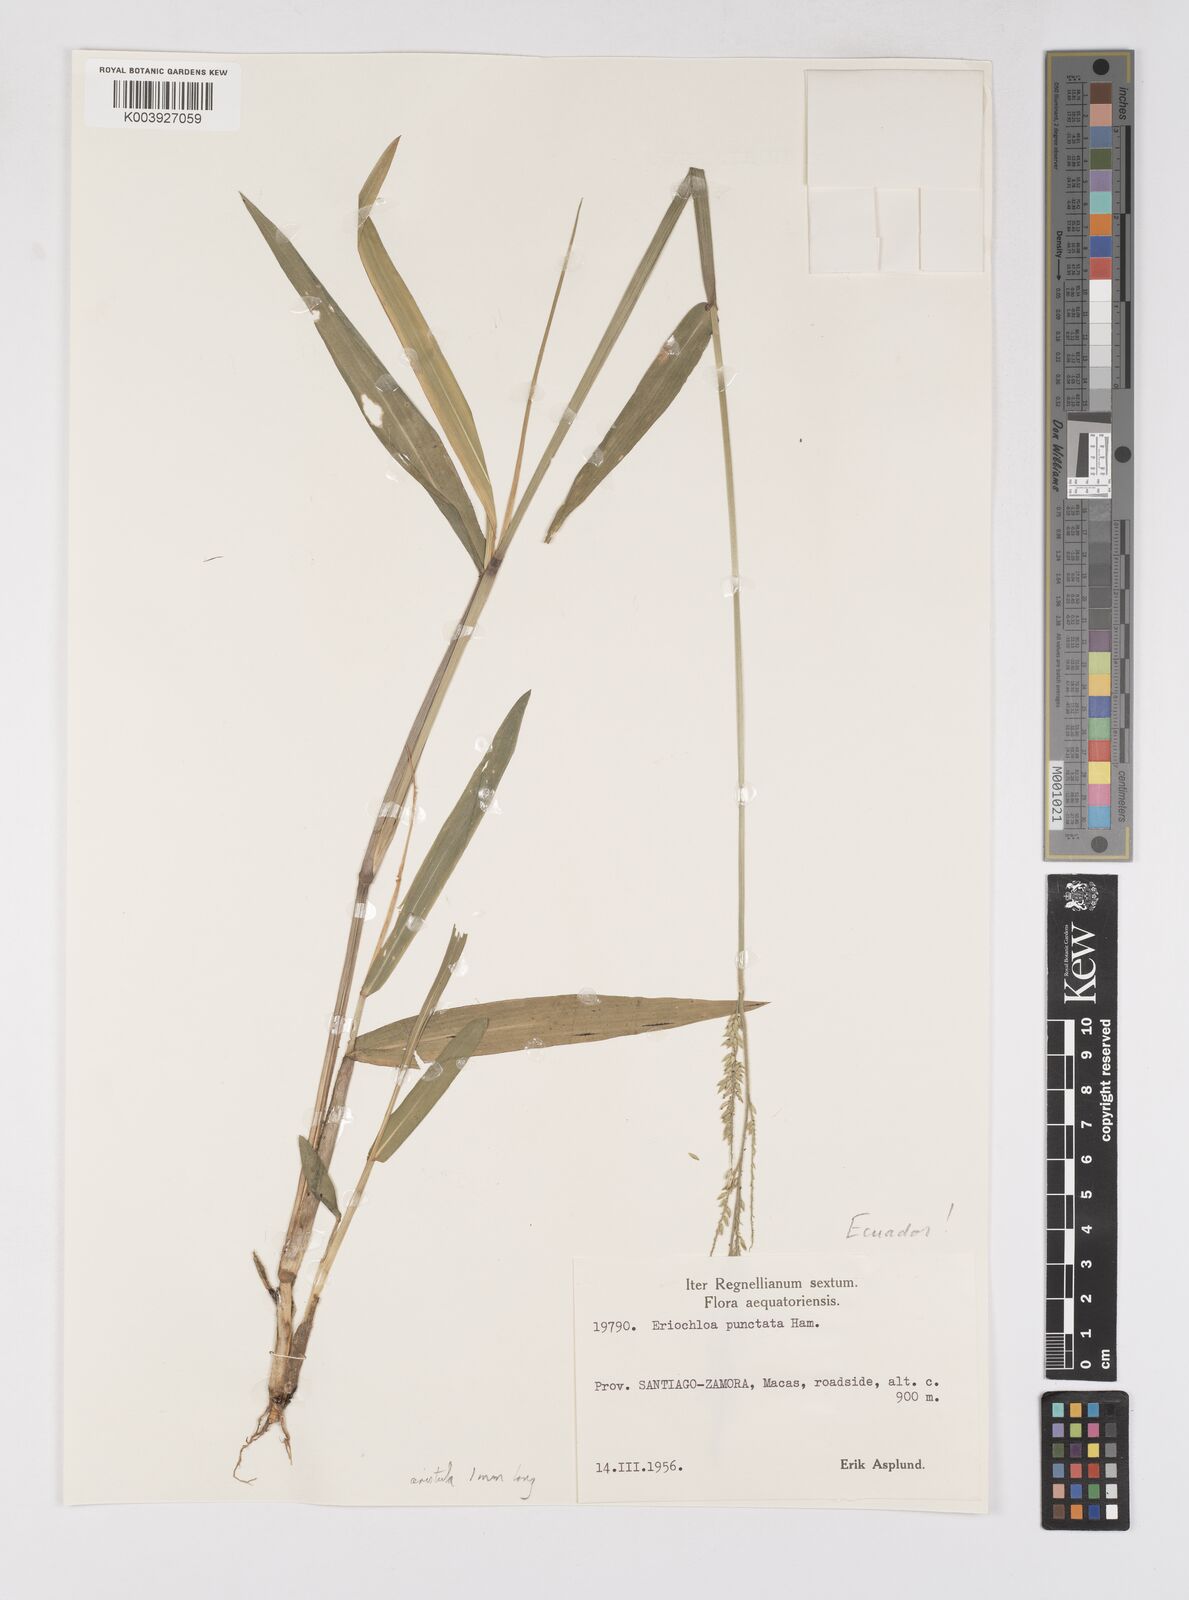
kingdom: Plantae
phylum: Tracheophyta
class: Liliopsida
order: Poales
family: Poaceae
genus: Eriochloa
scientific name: Eriochloa punctata
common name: Louisiana cupgrass
